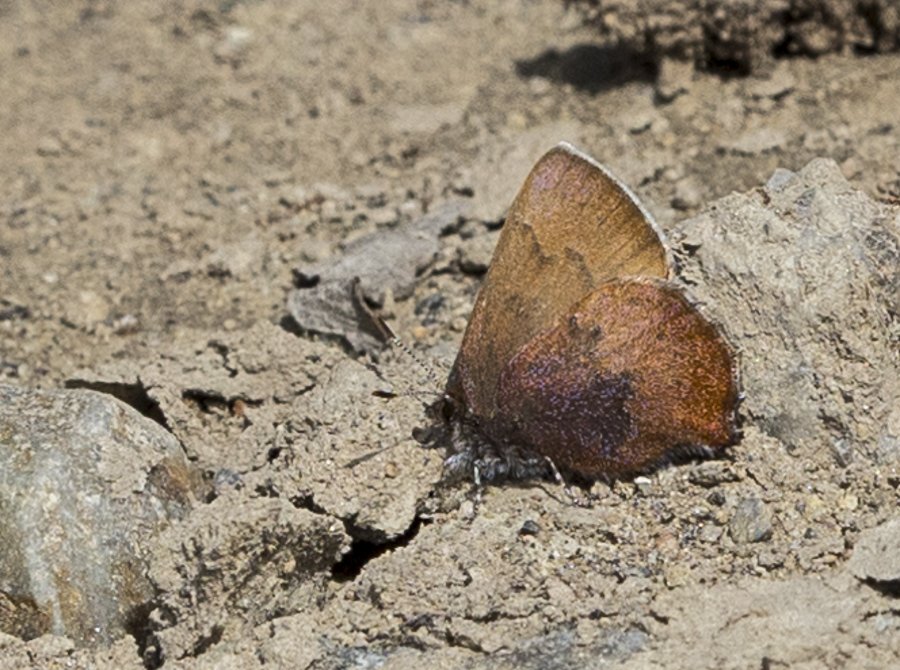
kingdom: Animalia
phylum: Arthropoda
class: Insecta
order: Lepidoptera
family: Lycaenidae
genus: Incisalia
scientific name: Incisalia irioides
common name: Brown Elfin
